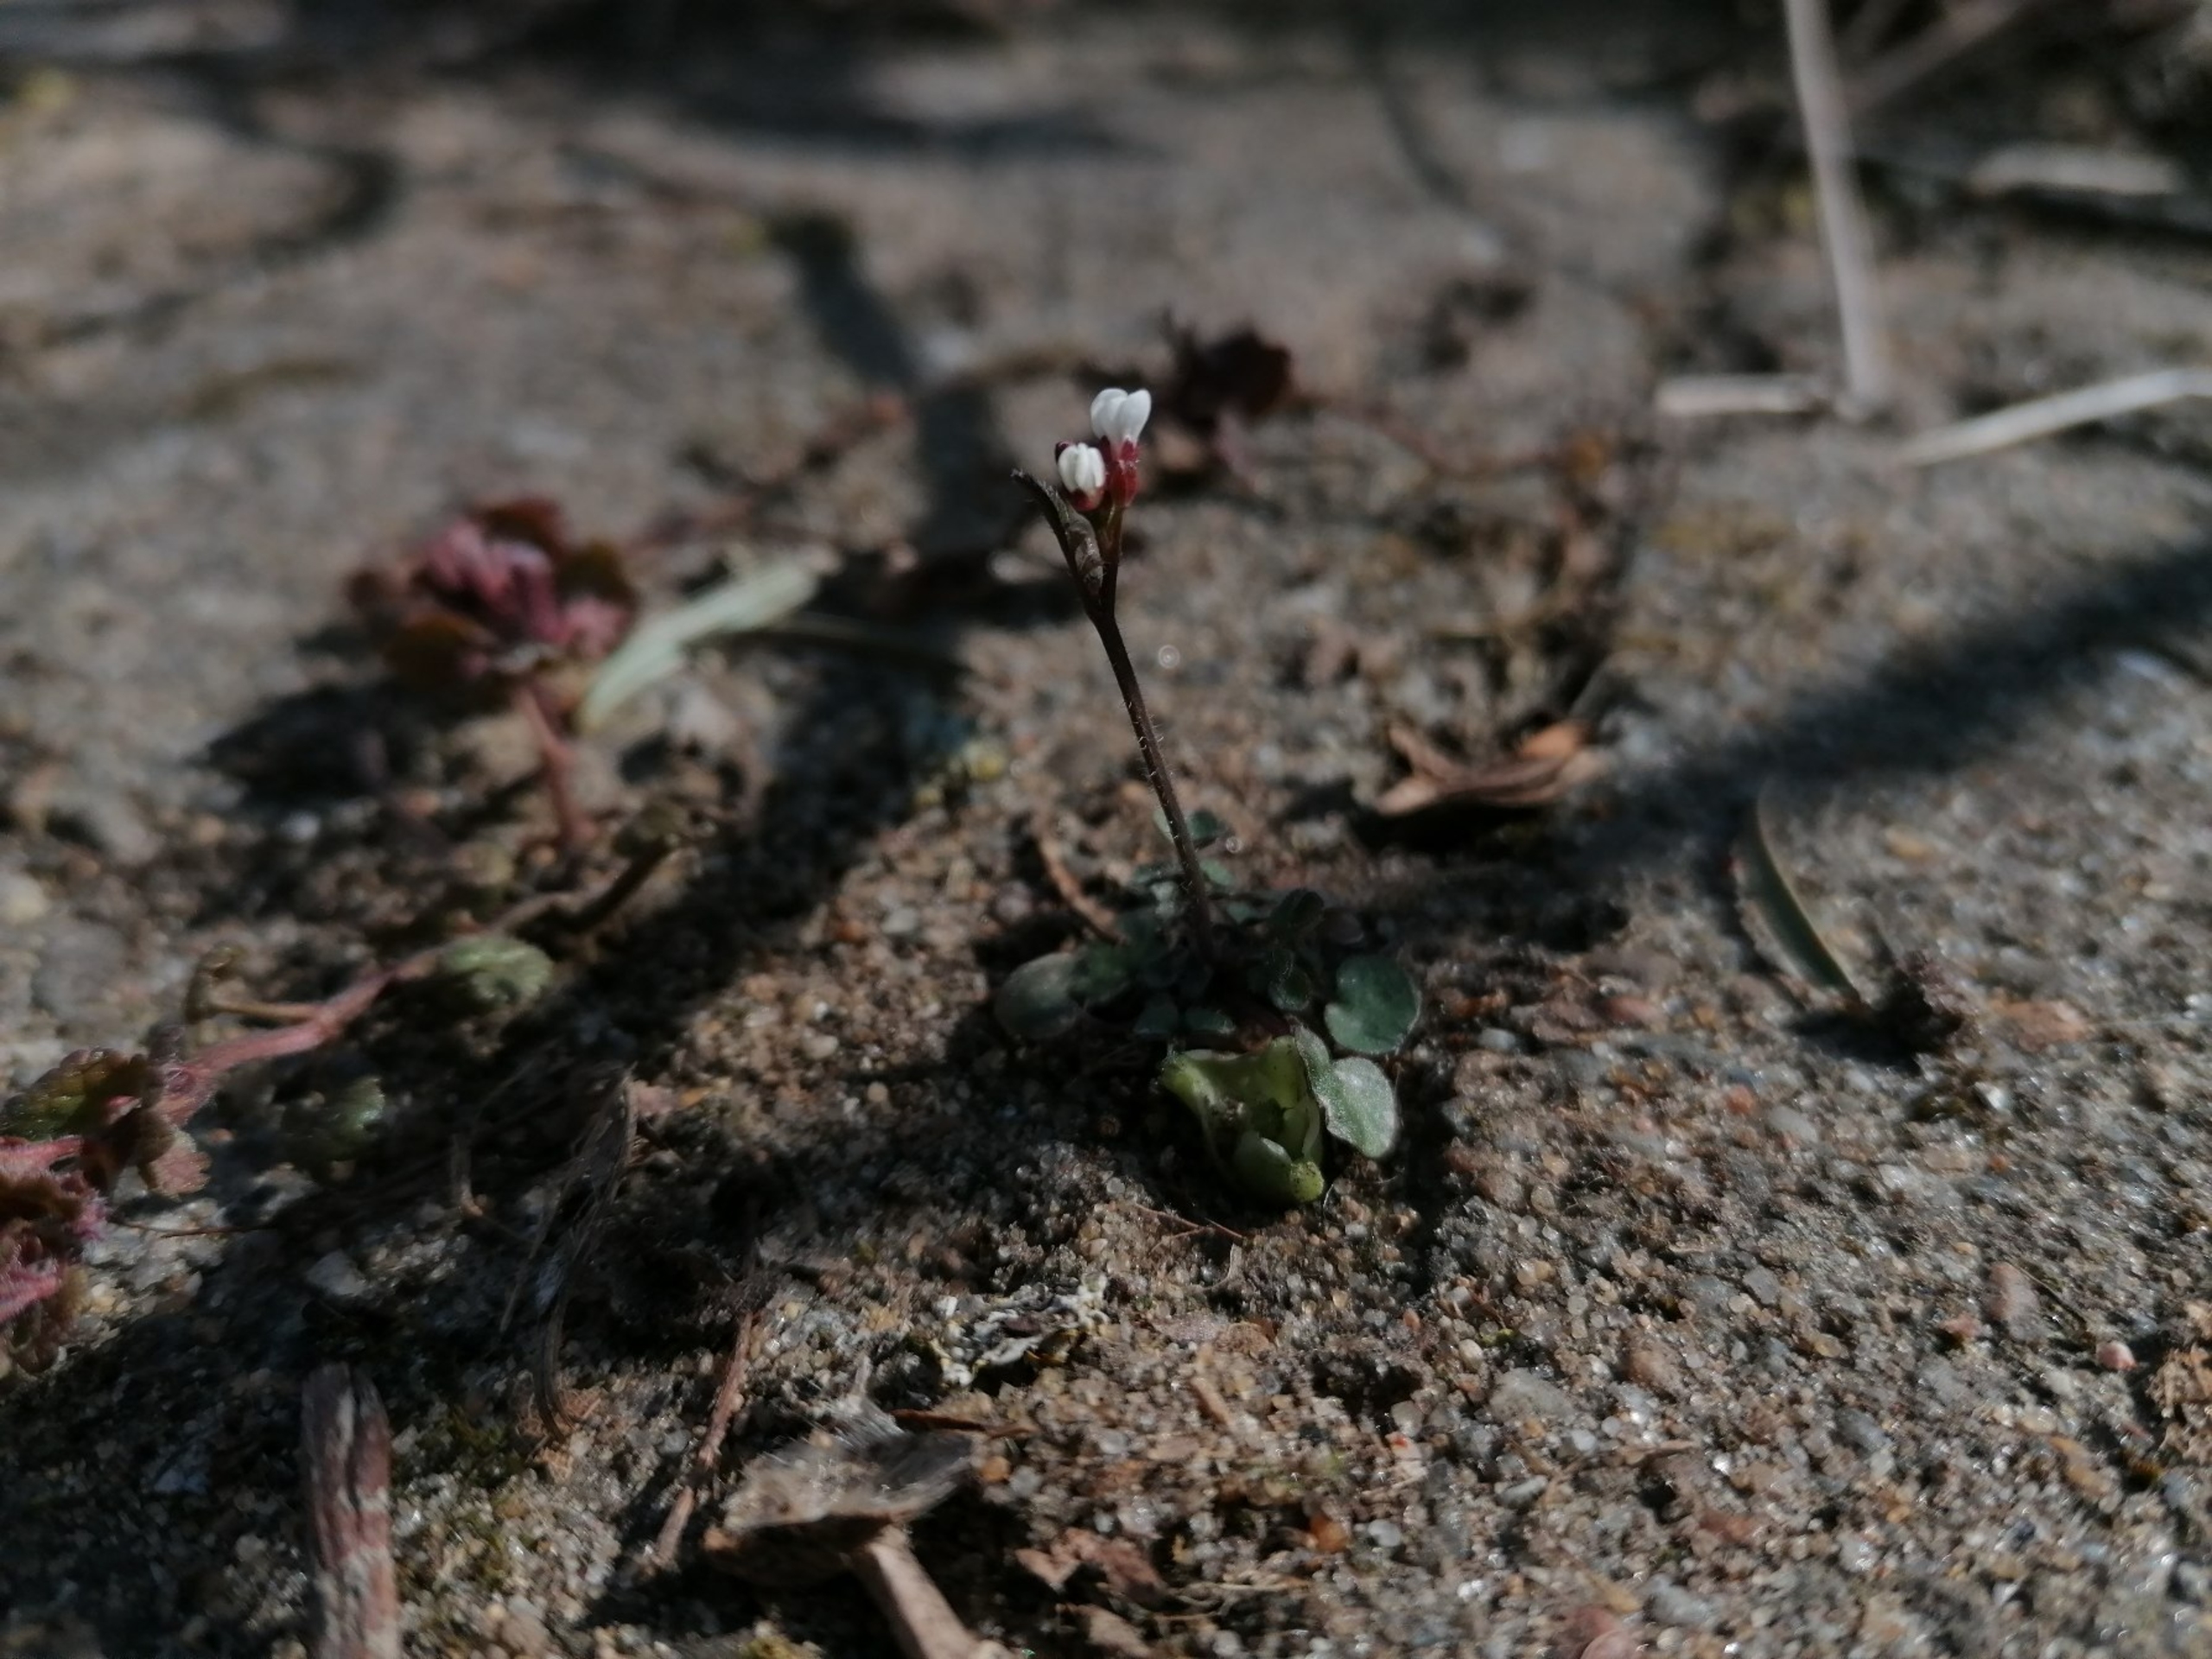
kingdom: Plantae
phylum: Tracheophyta
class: Magnoliopsida
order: Brassicales
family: Brassicaceae
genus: Draba
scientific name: Draba verna
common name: Vår-gæslingeblomst
